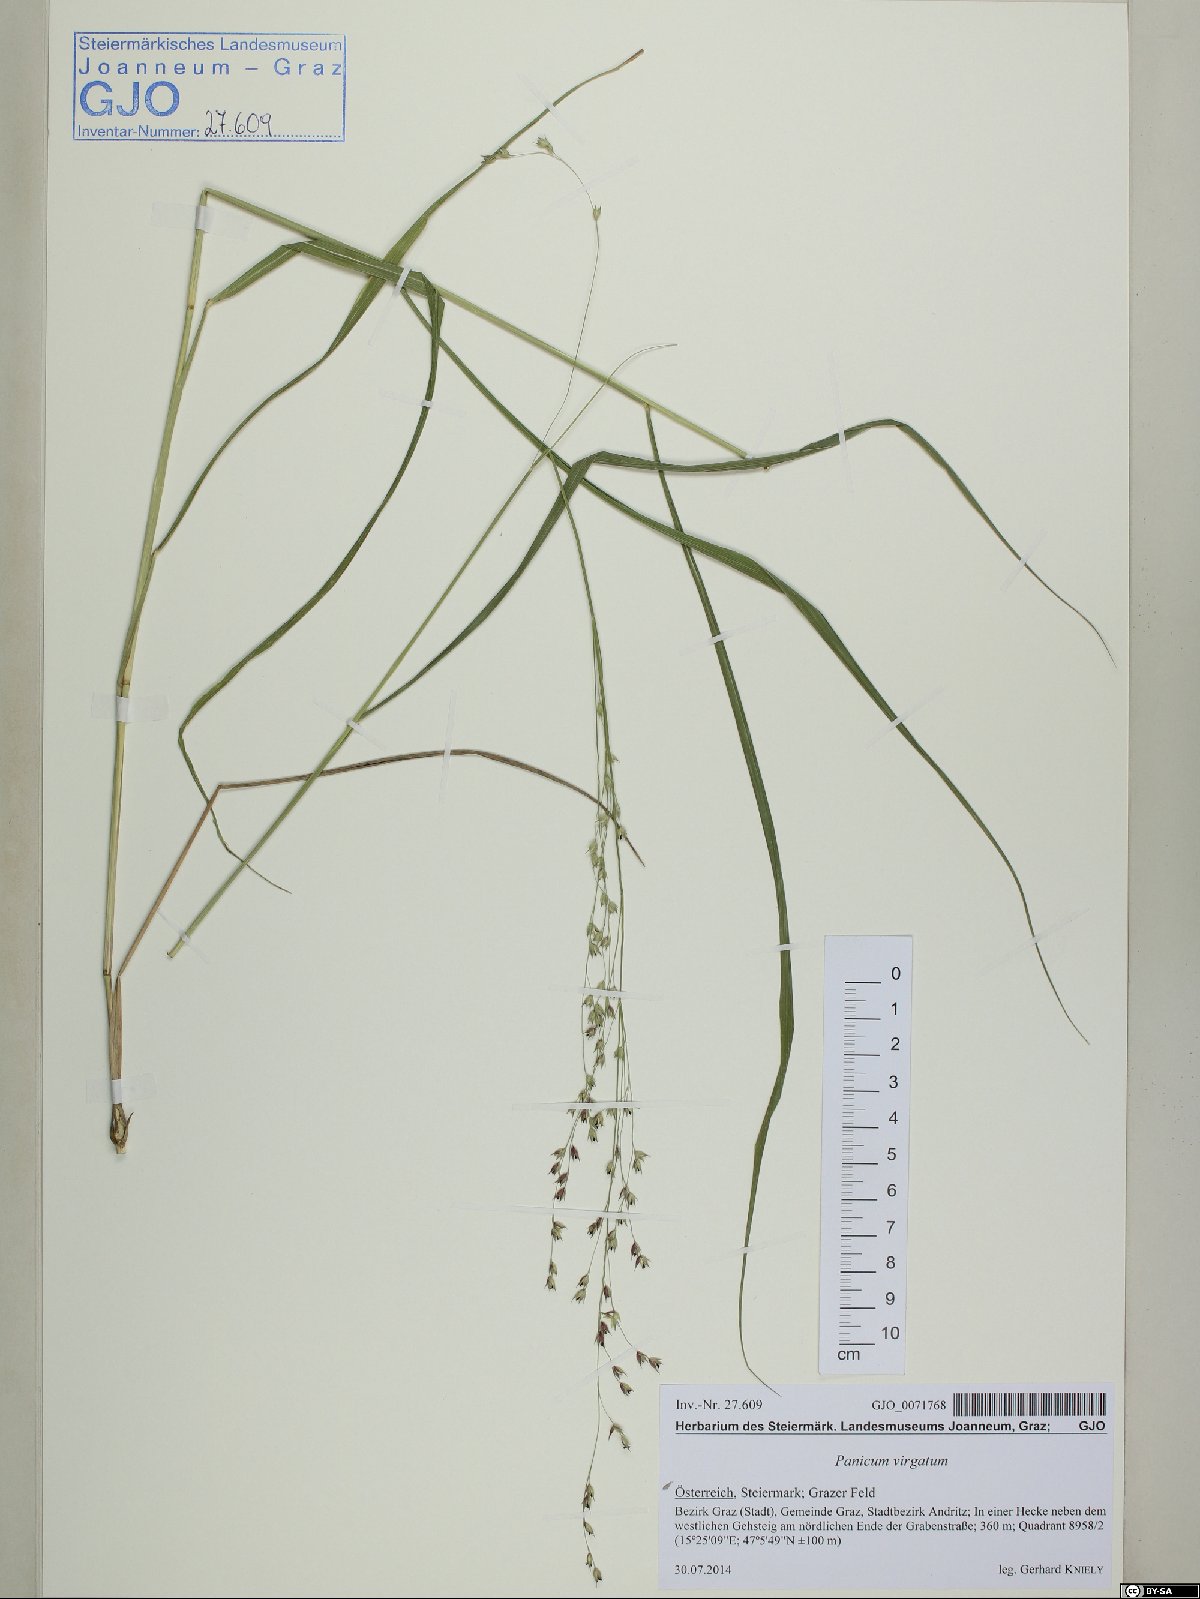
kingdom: Plantae
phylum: Tracheophyta
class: Liliopsida
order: Poales
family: Poaceae
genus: Panicum
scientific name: Panicum virgatum
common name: Switchgrass
